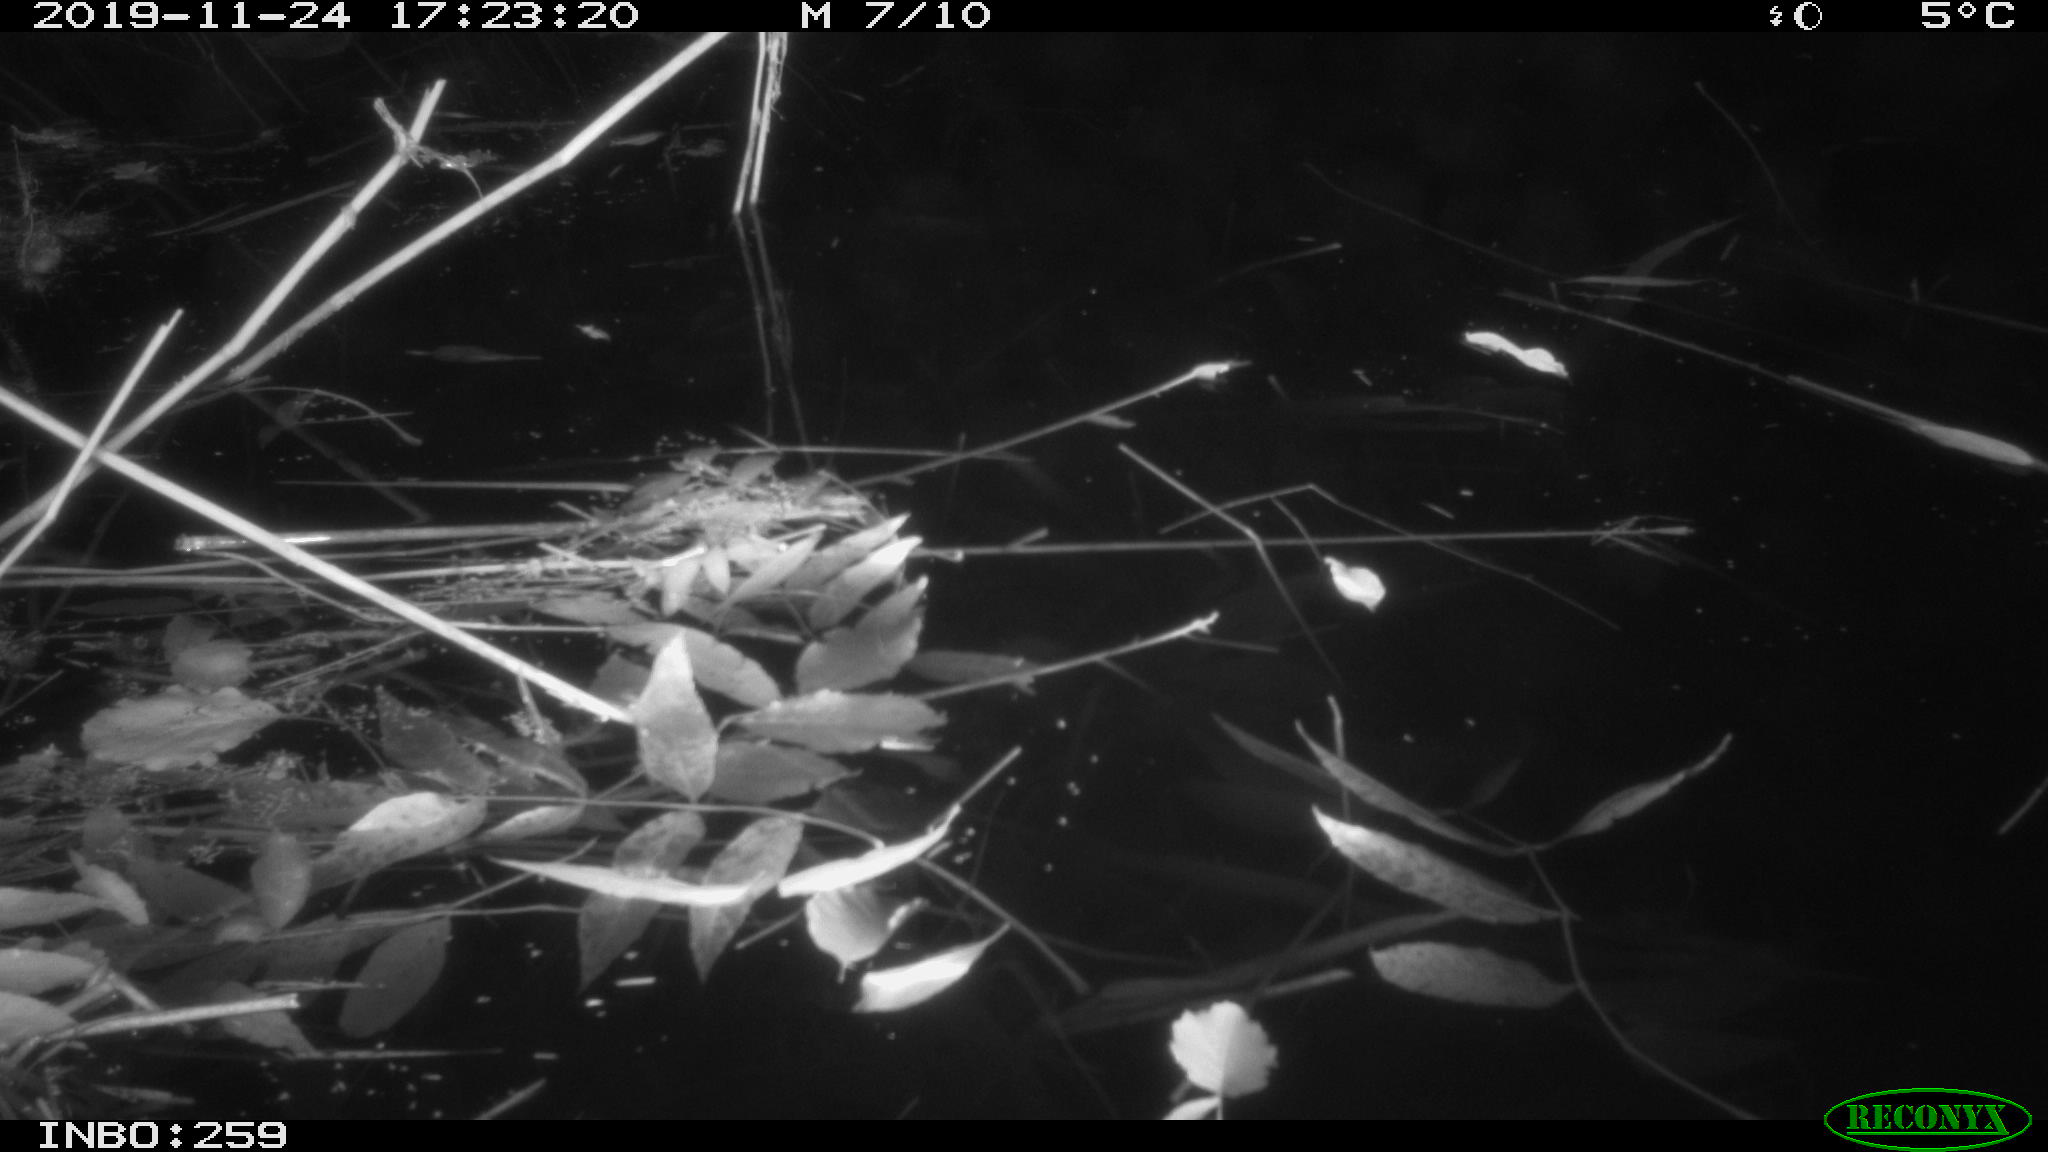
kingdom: Animalia
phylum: Chordata
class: Aves
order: Gruiformes
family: Rallidae
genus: Gallinula
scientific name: Gallinula chloropus
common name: Common moorhen
